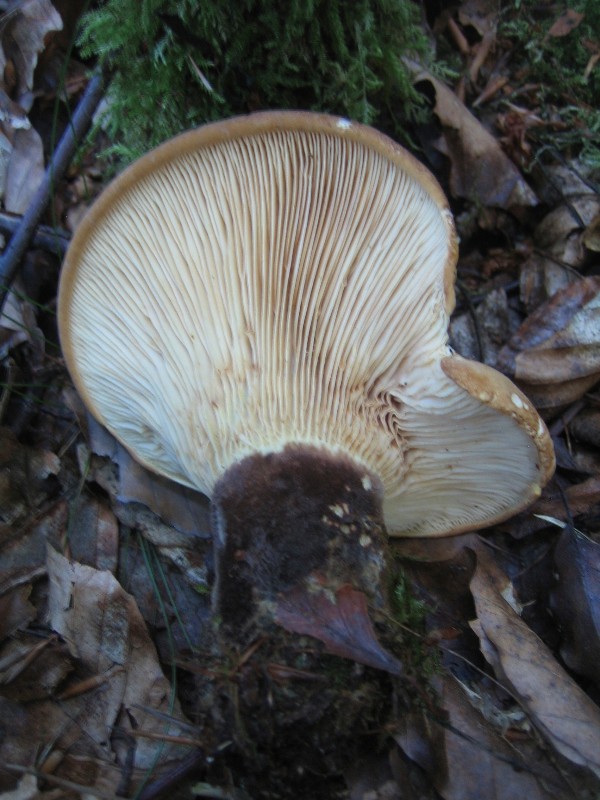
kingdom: Fungi
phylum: Basidiomycota
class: Agaricomycetes
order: Boletales
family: Tapinellaceae
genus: Tapinella
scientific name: Tapinella atrotomentosa
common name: sortfiltet viftesvamp
